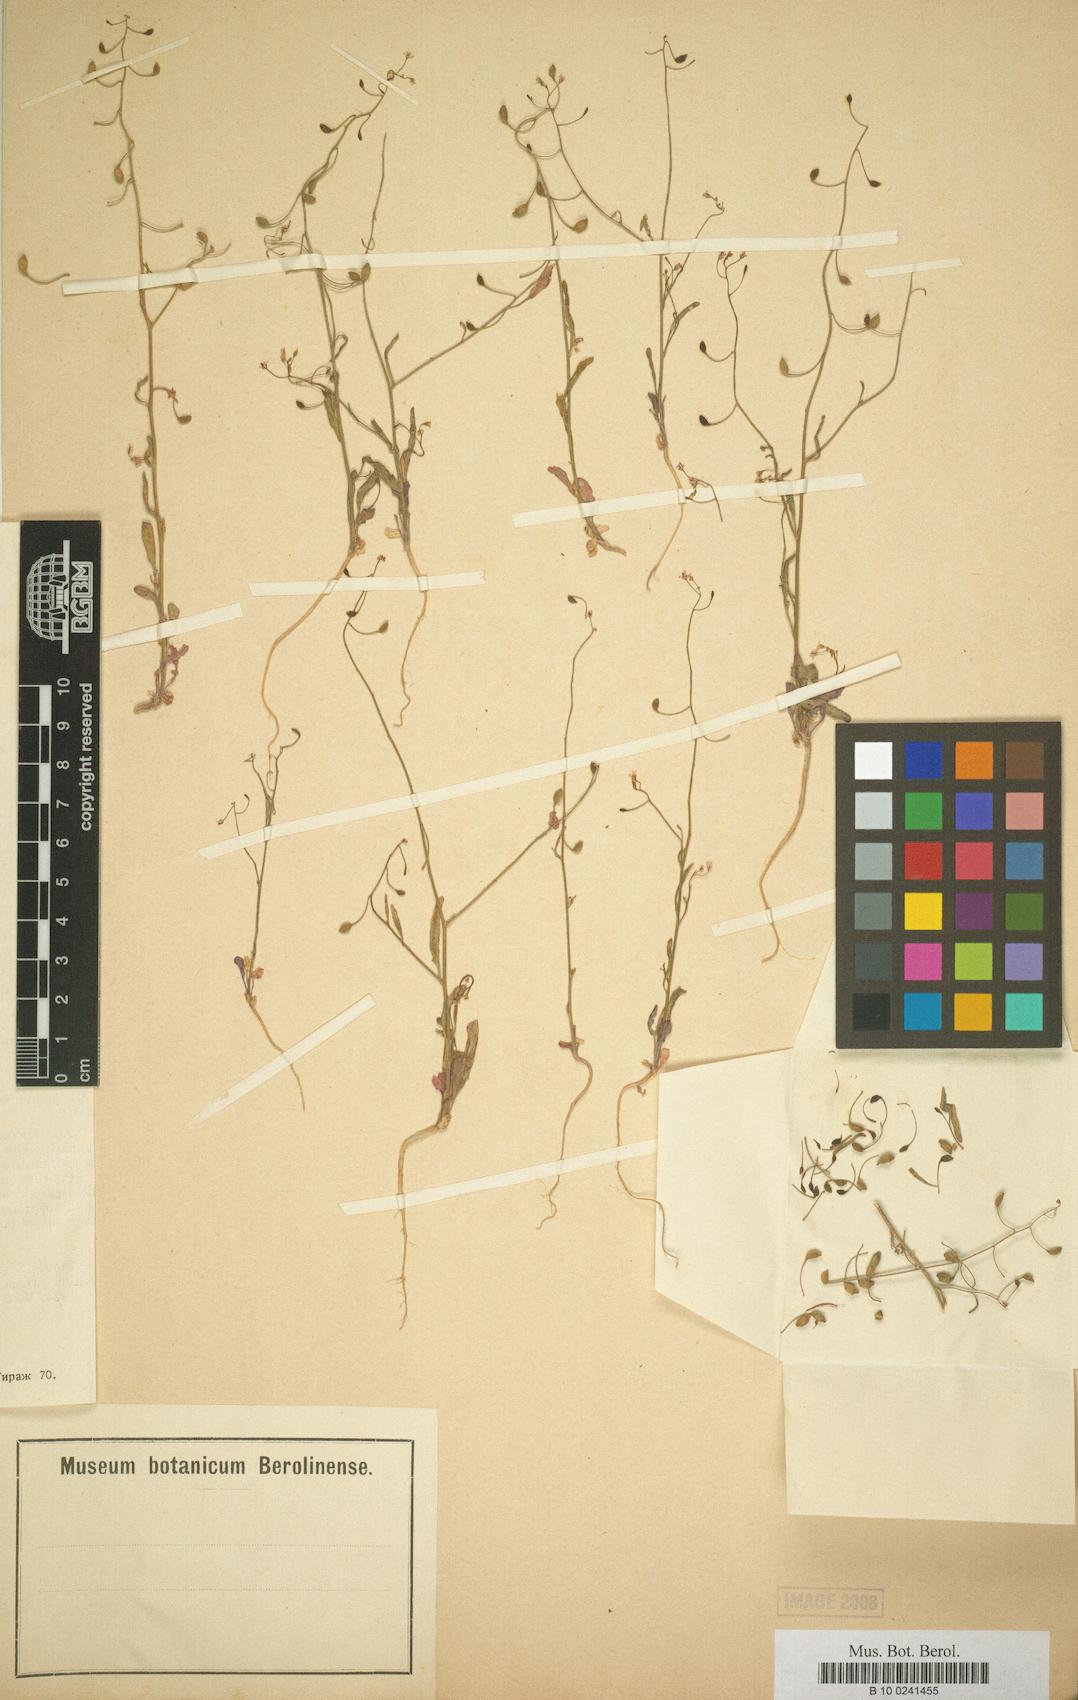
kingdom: Plantae
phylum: Tracheophyta
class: Magnoliopsida
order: Brassicales
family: Brassicaceae
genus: Goldbachia
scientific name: Goldbachia verrucosa
